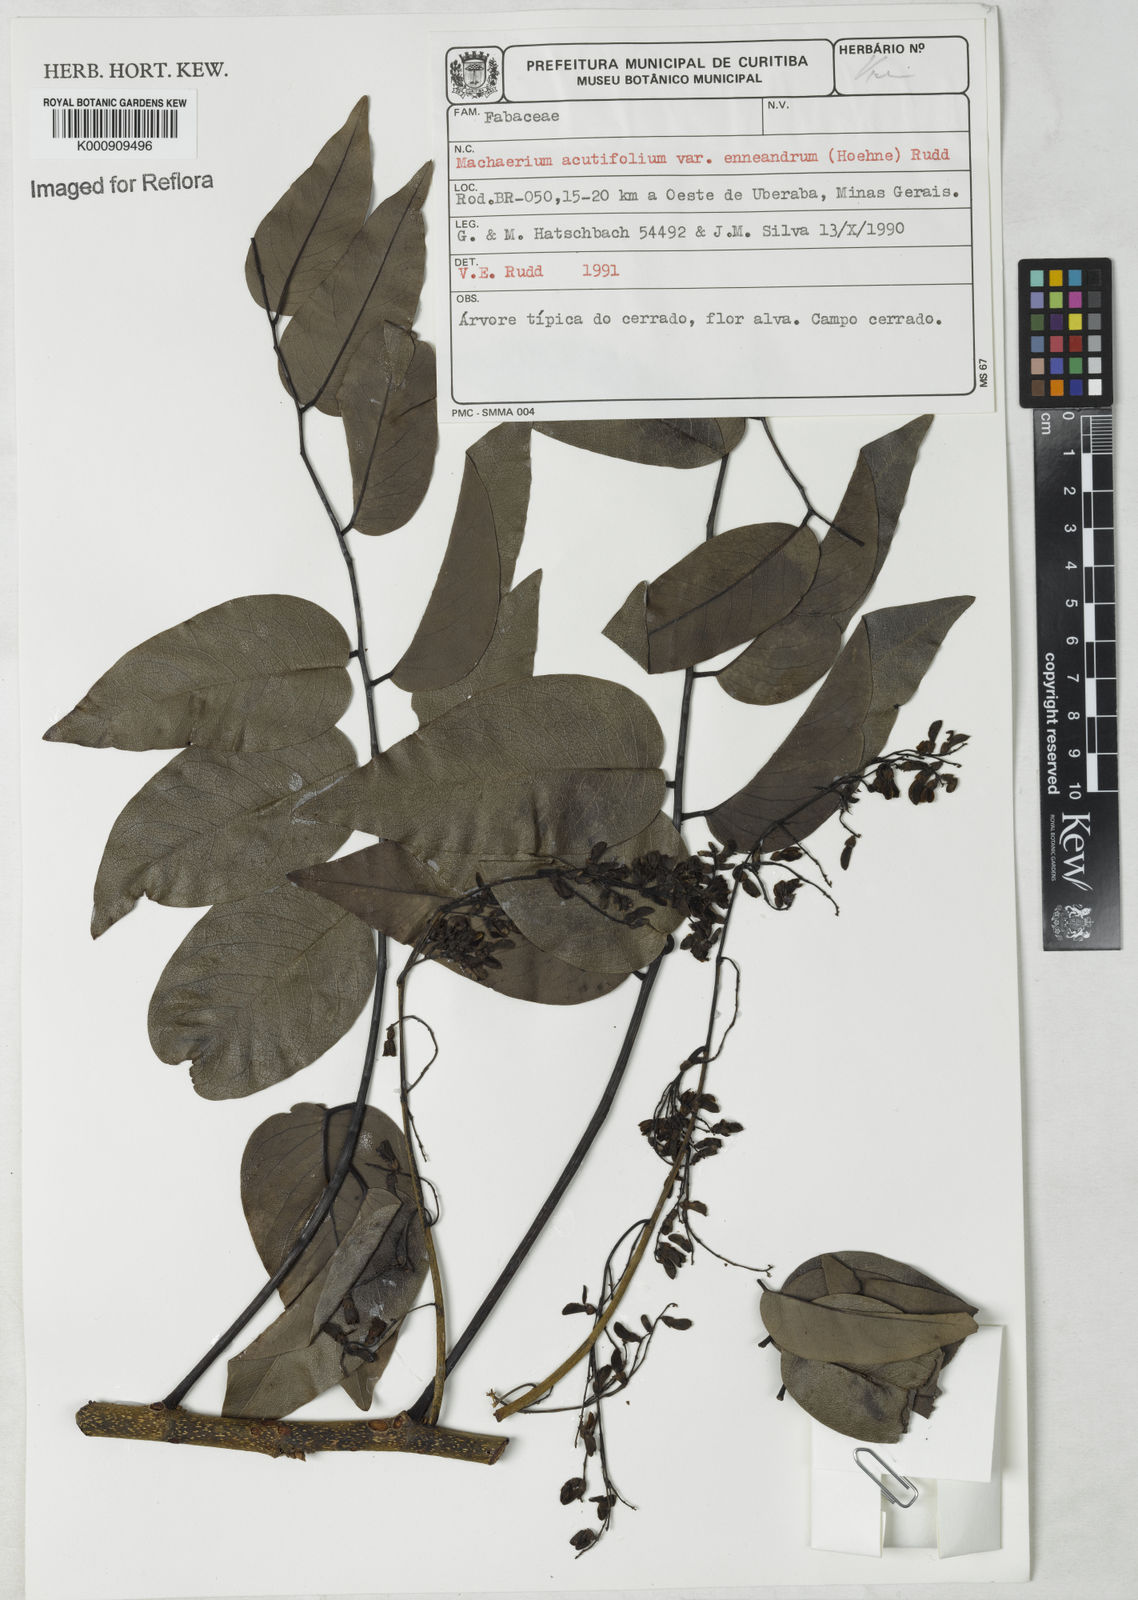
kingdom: Plantae
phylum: Tracheophyta
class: Magnoliopsida
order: Fabales
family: Fabaceae
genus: Machaerium
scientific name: Machaerium acutifolium
